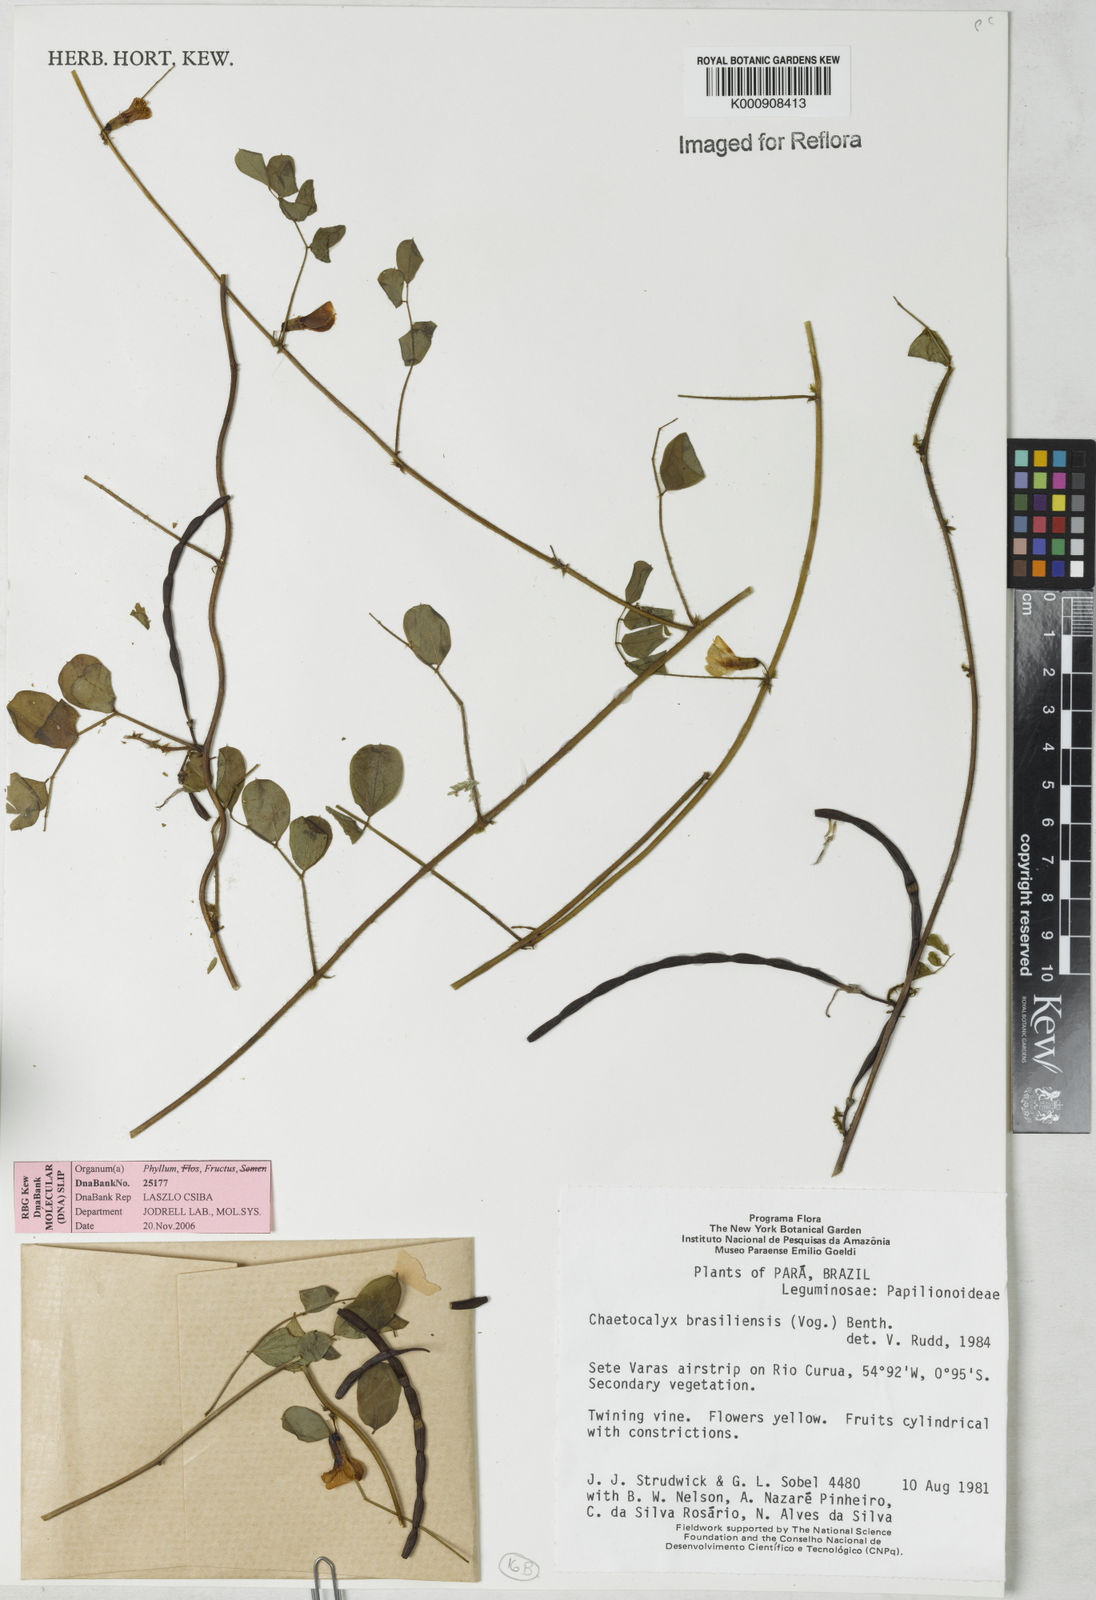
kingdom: Plantae
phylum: Tracheophyta
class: Magnoliopsida
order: Fabales
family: Fabaceae
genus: Nissolia
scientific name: Nissolia brasiliensis
